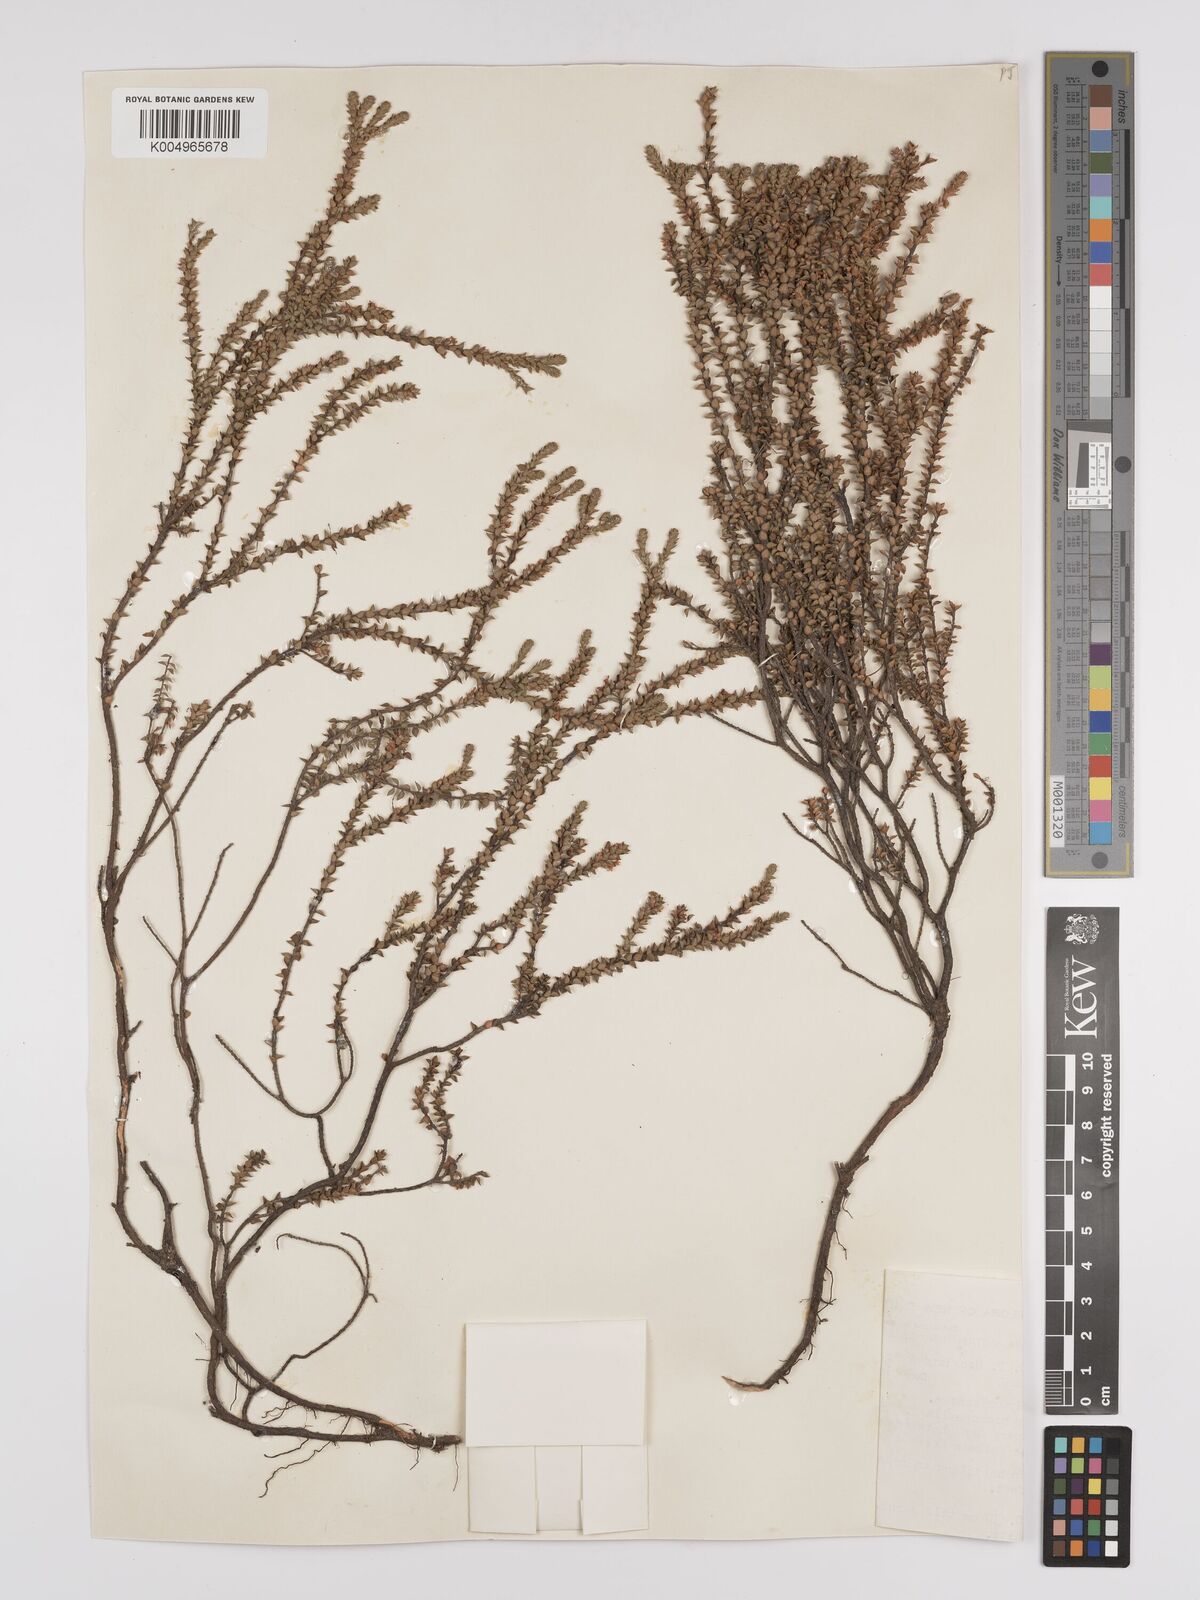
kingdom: Plantae
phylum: Tracheophyta
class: Magnoliopsida
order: Ericales
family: Ericaceae
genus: Epacris
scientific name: Epacris
